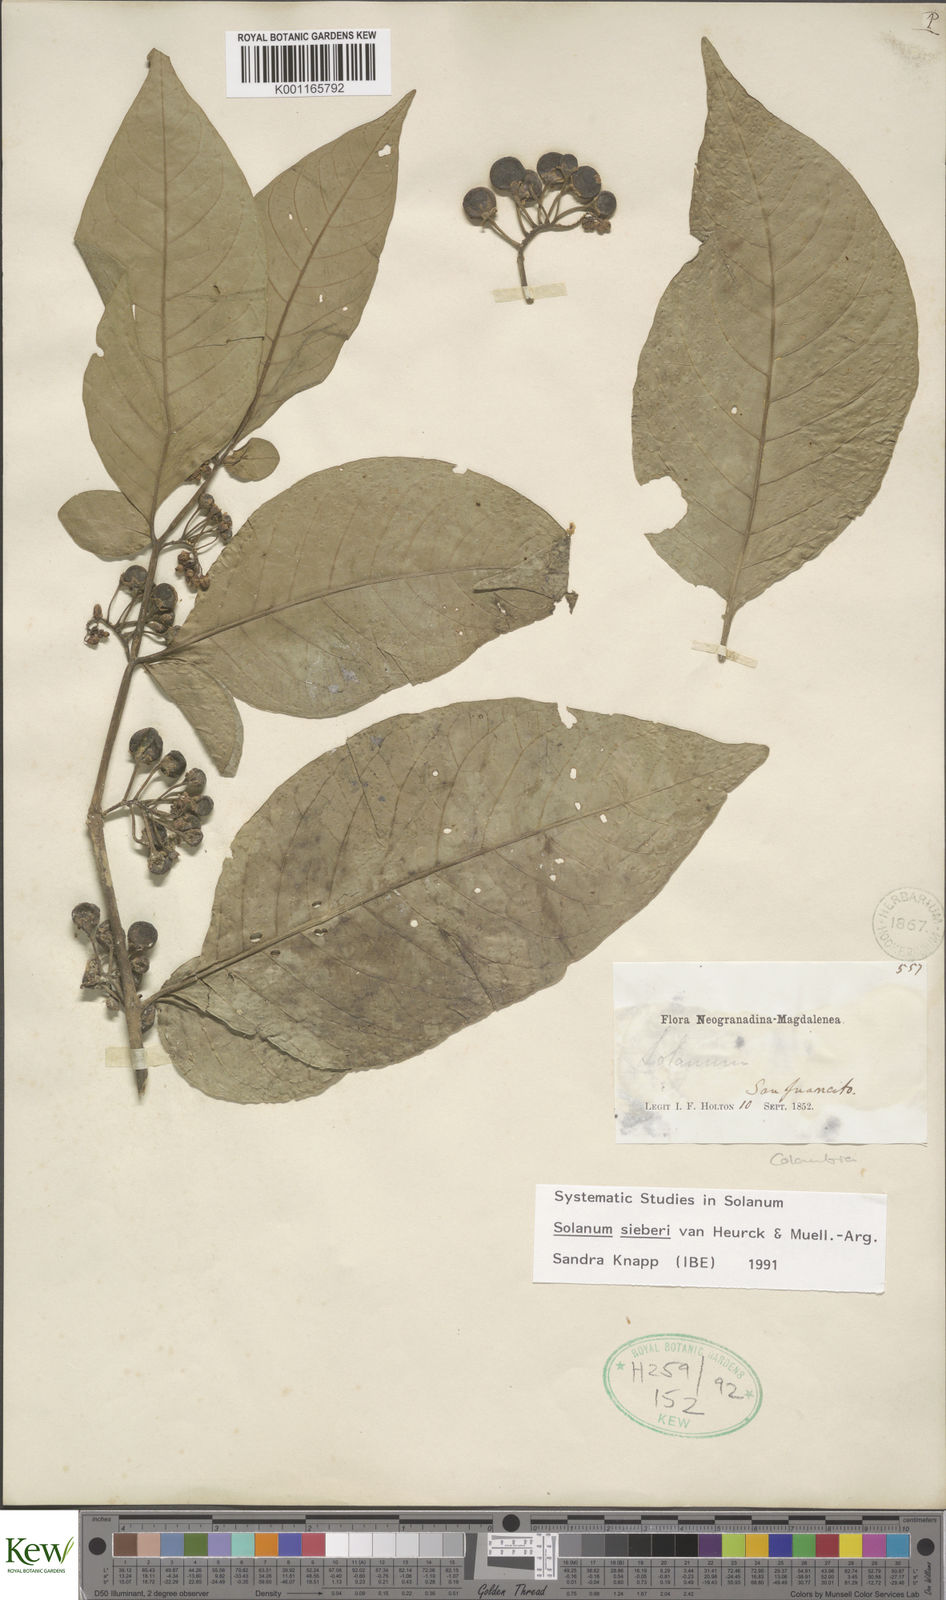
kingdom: Plantae
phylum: Tracheophyta
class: Magnoliopsida
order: Solanales
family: Solanaceae
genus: Solanum
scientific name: Solanum sieberi
